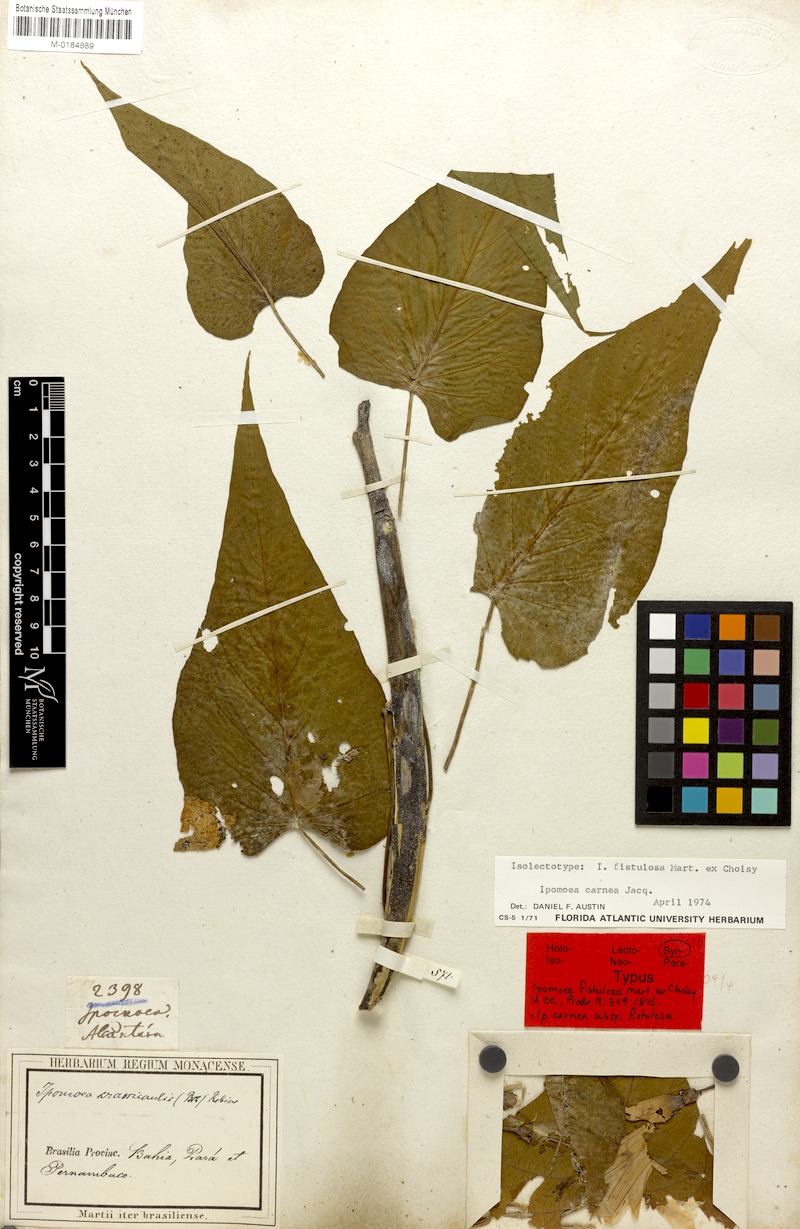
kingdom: Plantae
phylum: Tracheophyta
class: Magnoliopsida
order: Solanales
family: Convolvulaceae
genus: Ipomoea
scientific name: Ipomoea carnea
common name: Morning-glory
